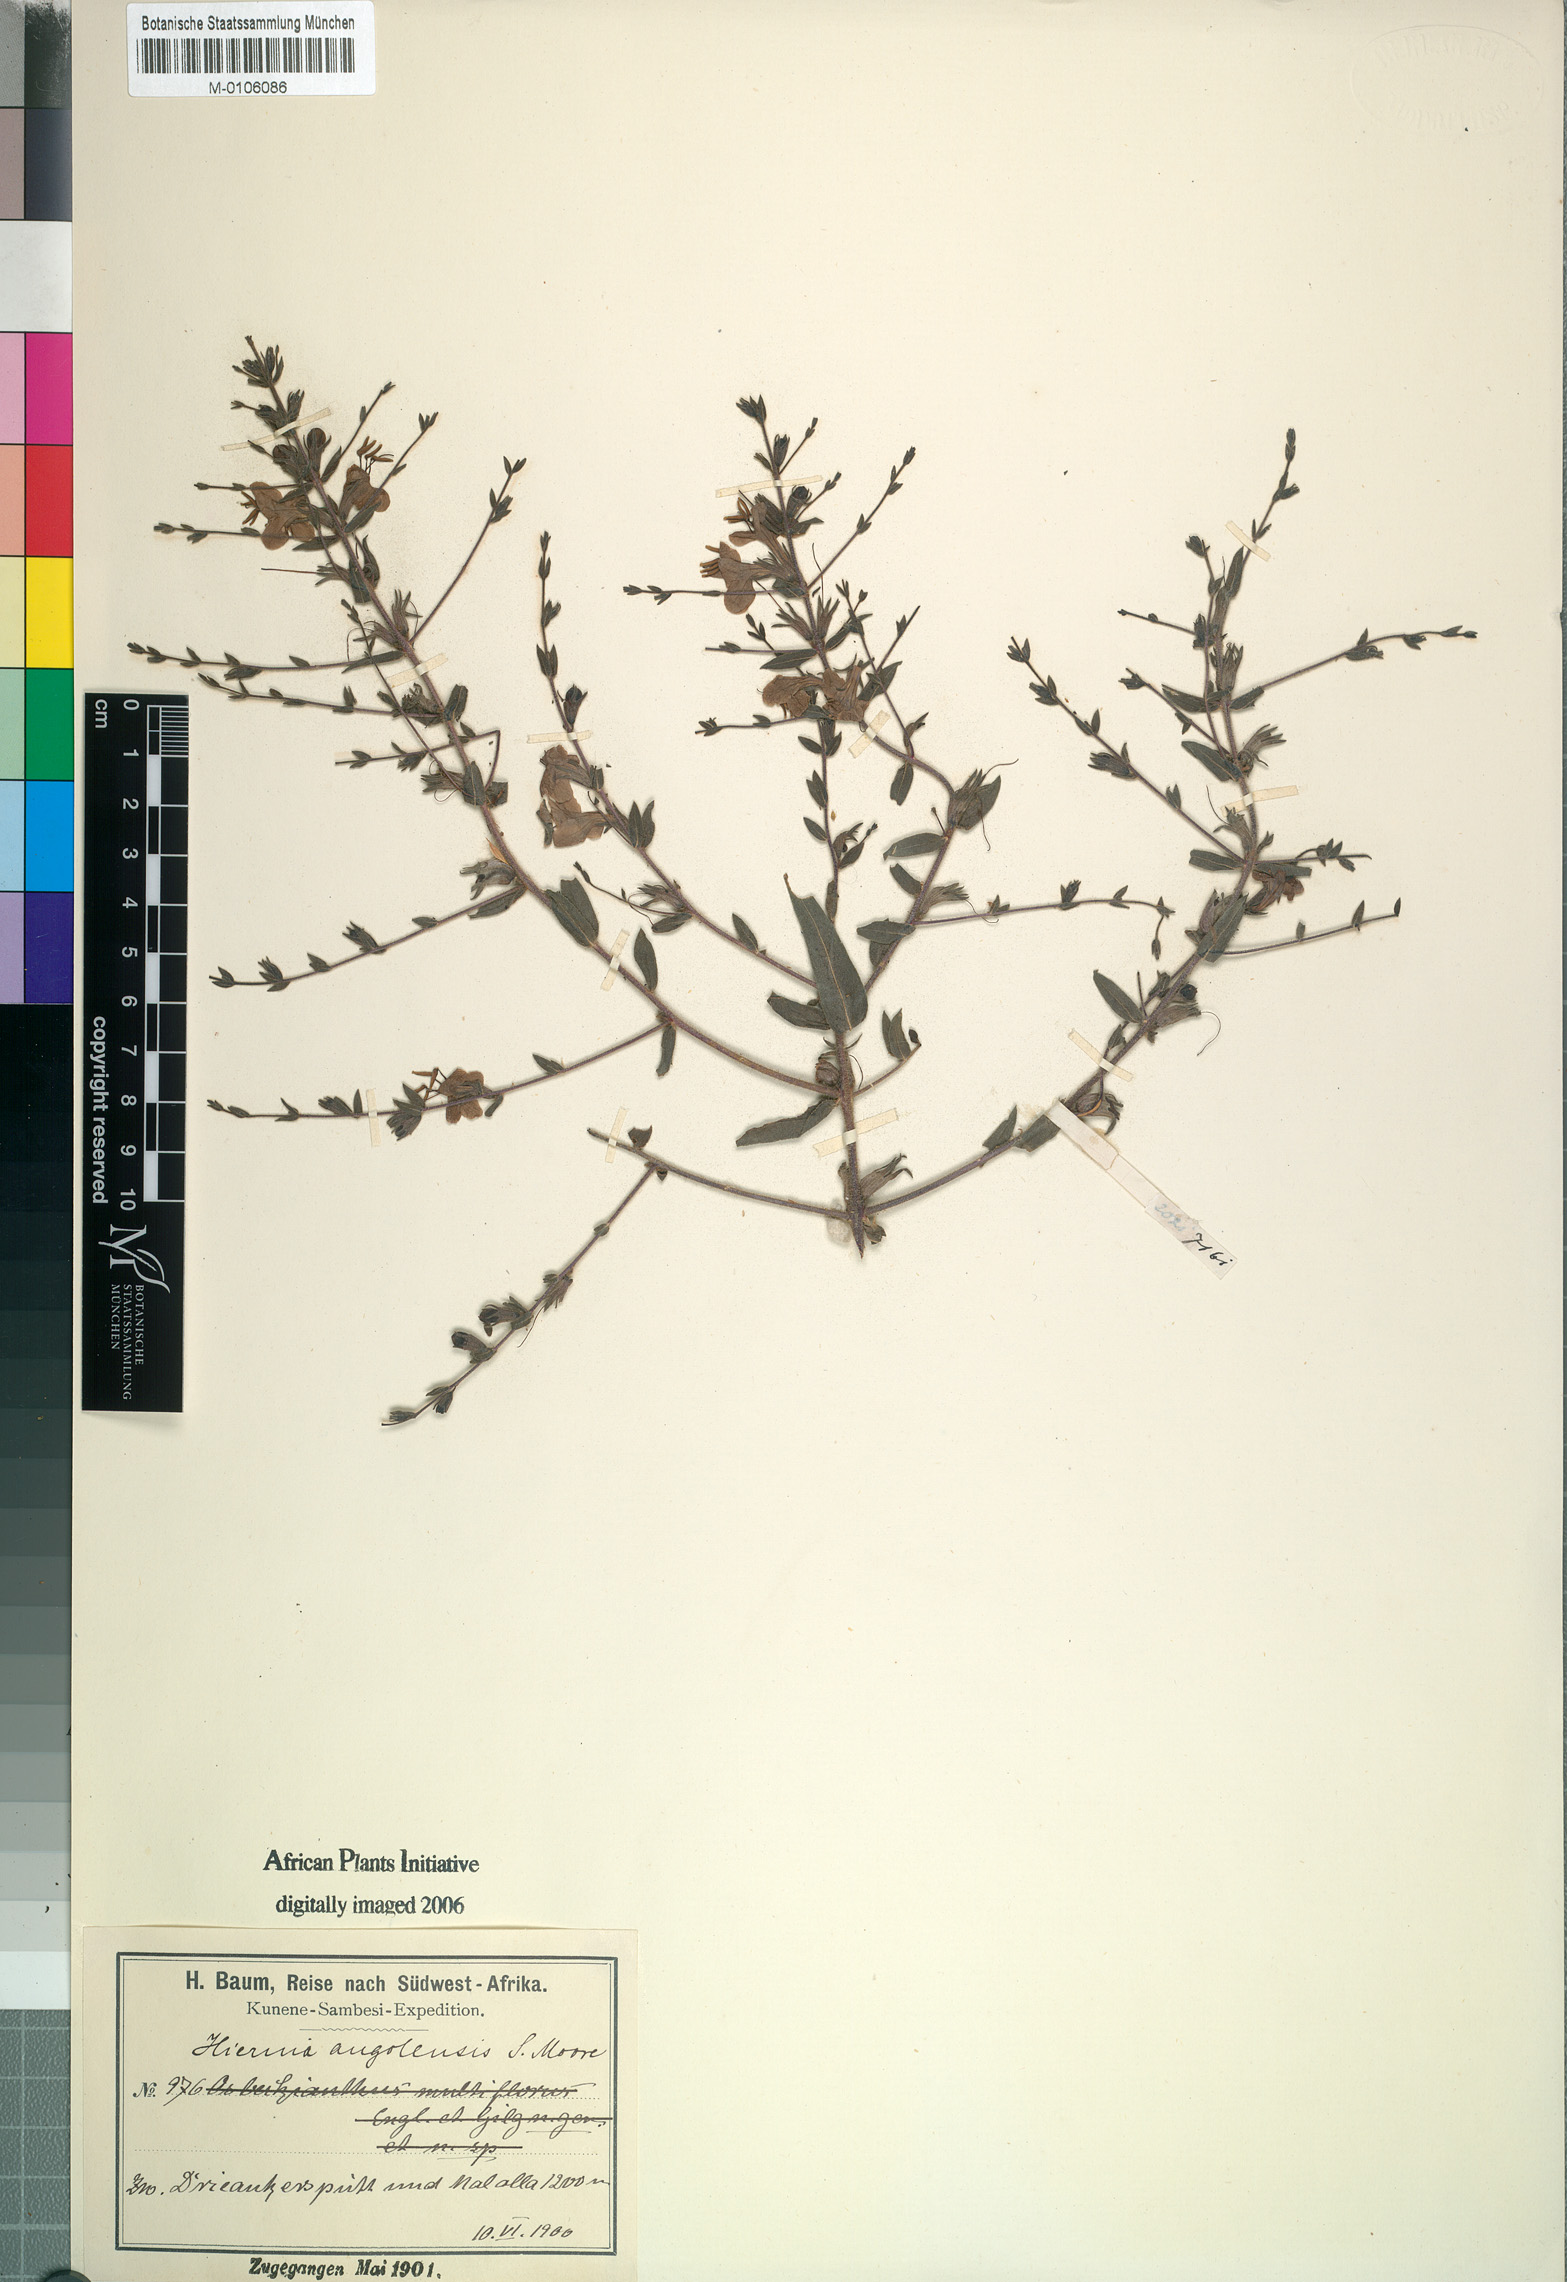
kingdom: Plantae
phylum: Tracheophyta
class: Magnoliopsida
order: Lamiales
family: Orobanchaceae
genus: Hiernia
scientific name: Hiernia angolensis
